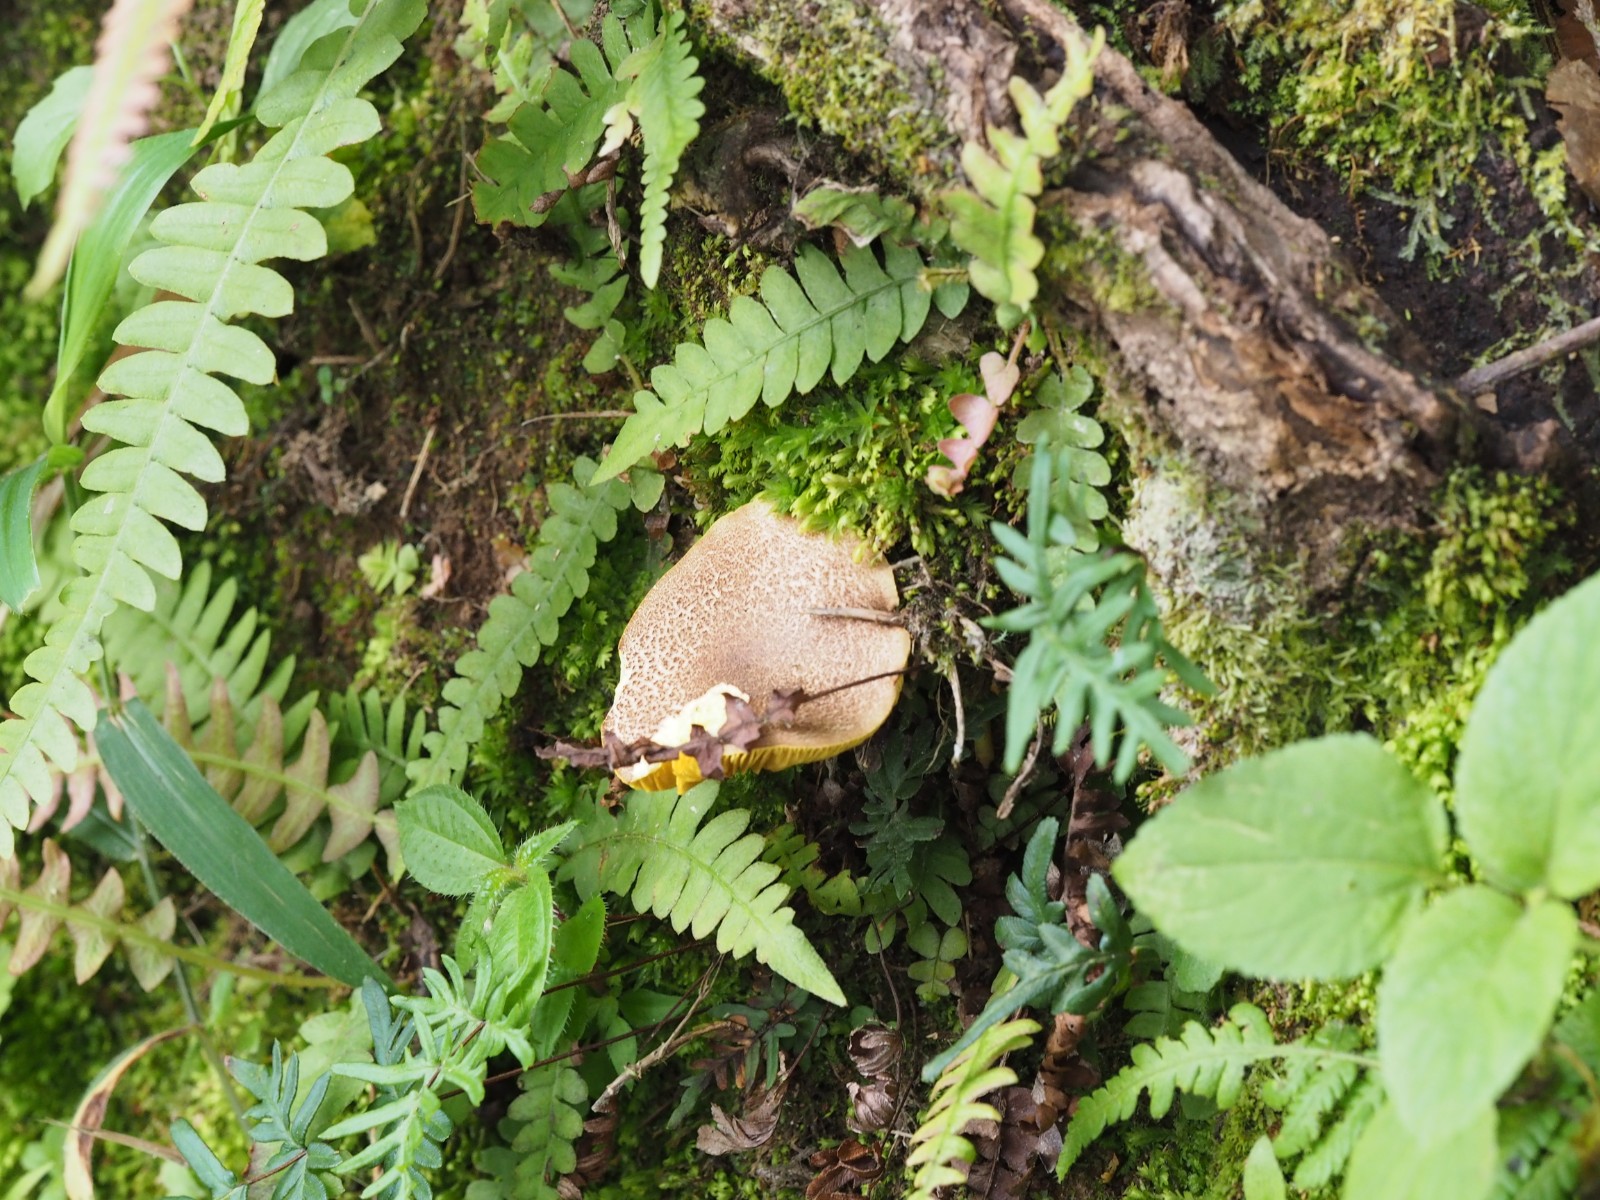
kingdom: Fungi
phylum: Basidiomycota
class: Agaricomycetes
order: Boletales
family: Boletaceae
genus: Phylloporus
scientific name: Phylloporus
